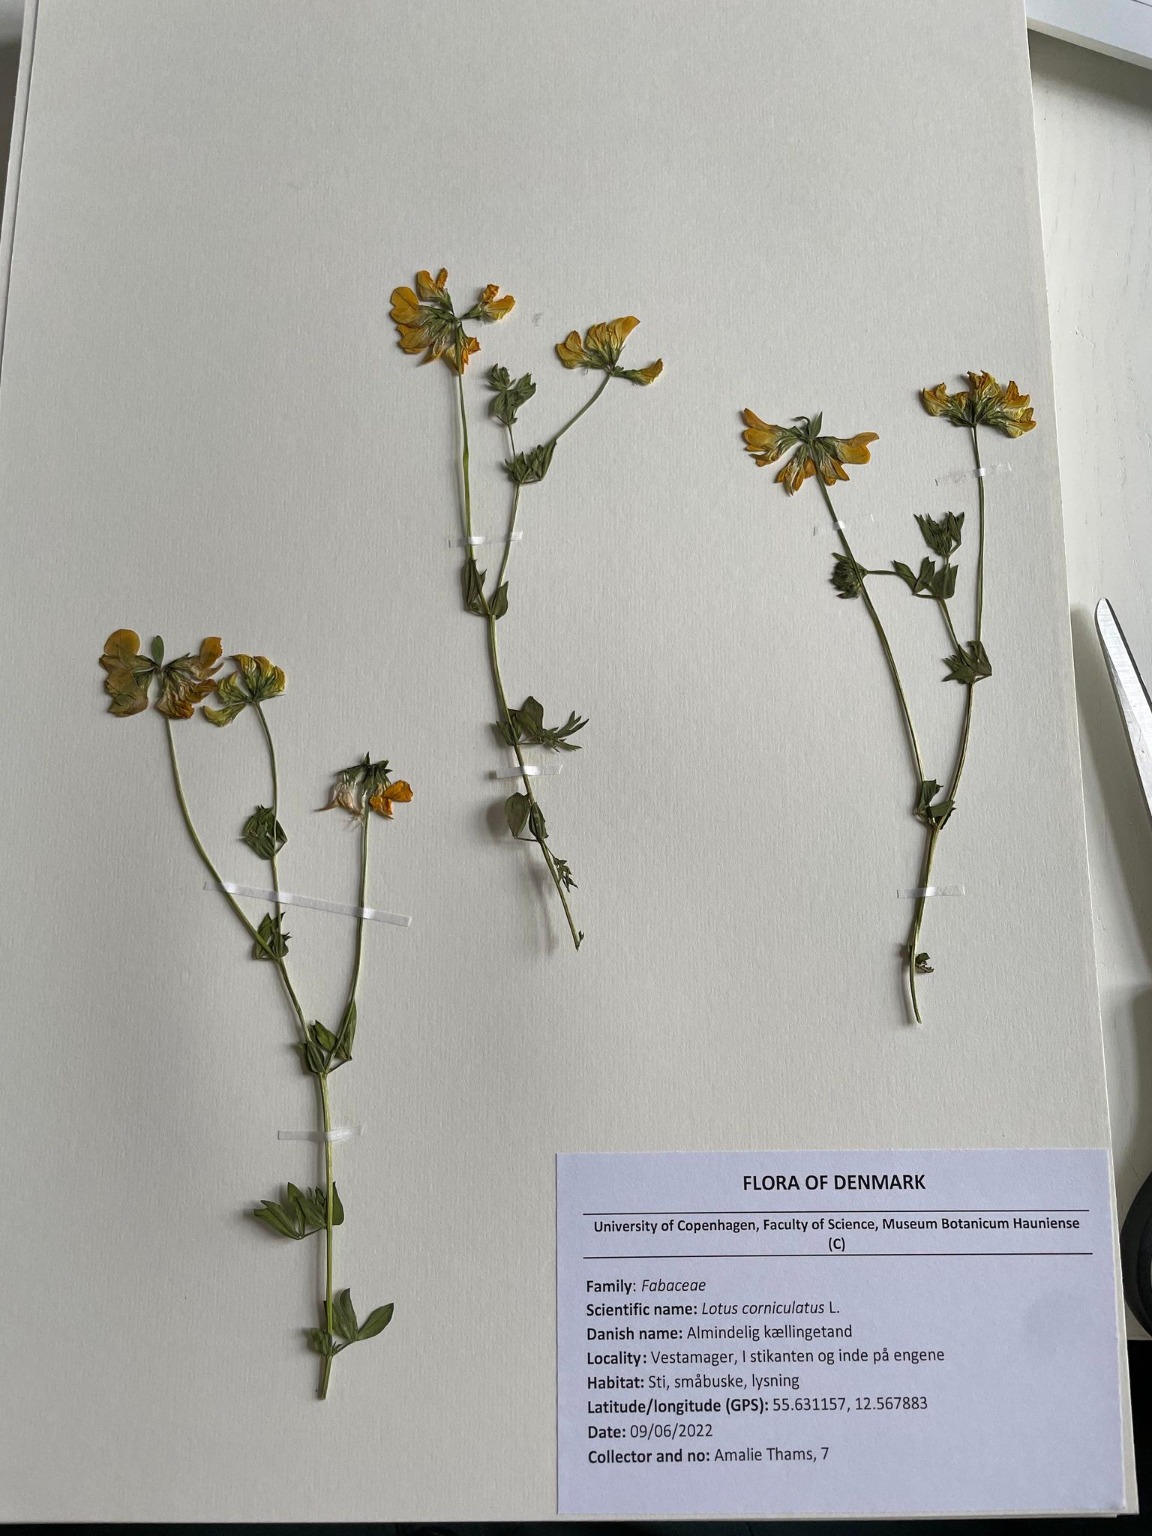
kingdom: Plantae
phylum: Tracheophyta
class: Magnoliopsida
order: Fabales
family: Fabaceae
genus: Lotus
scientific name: Lotus corniculatus
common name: Almindelig kællingetand
